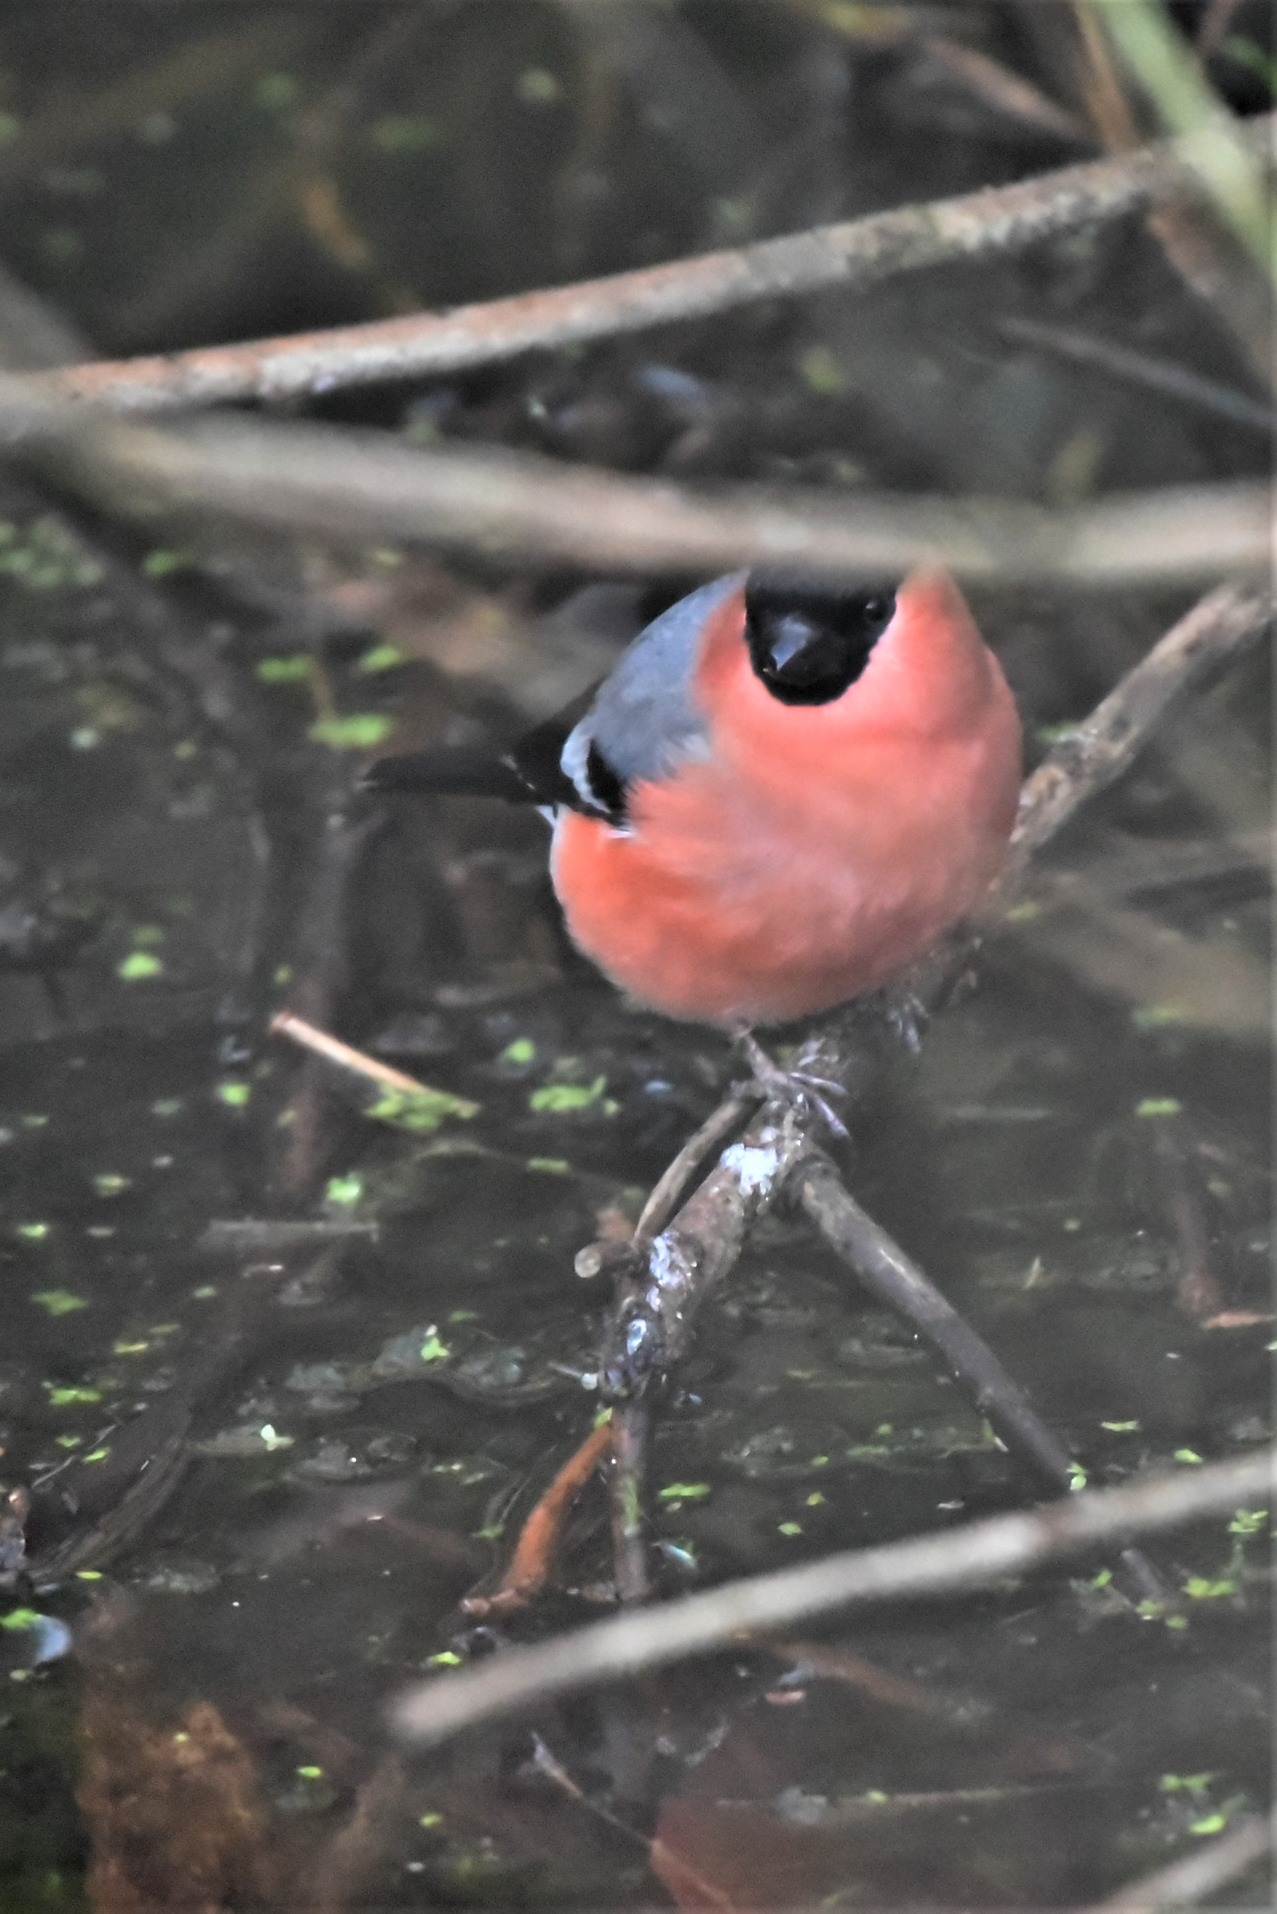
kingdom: Animalia
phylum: Chordata
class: Aves
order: Passeriformes
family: Fringillidae
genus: Pyrrhula
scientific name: Pyrrhula pyrrhula
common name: Dompap
